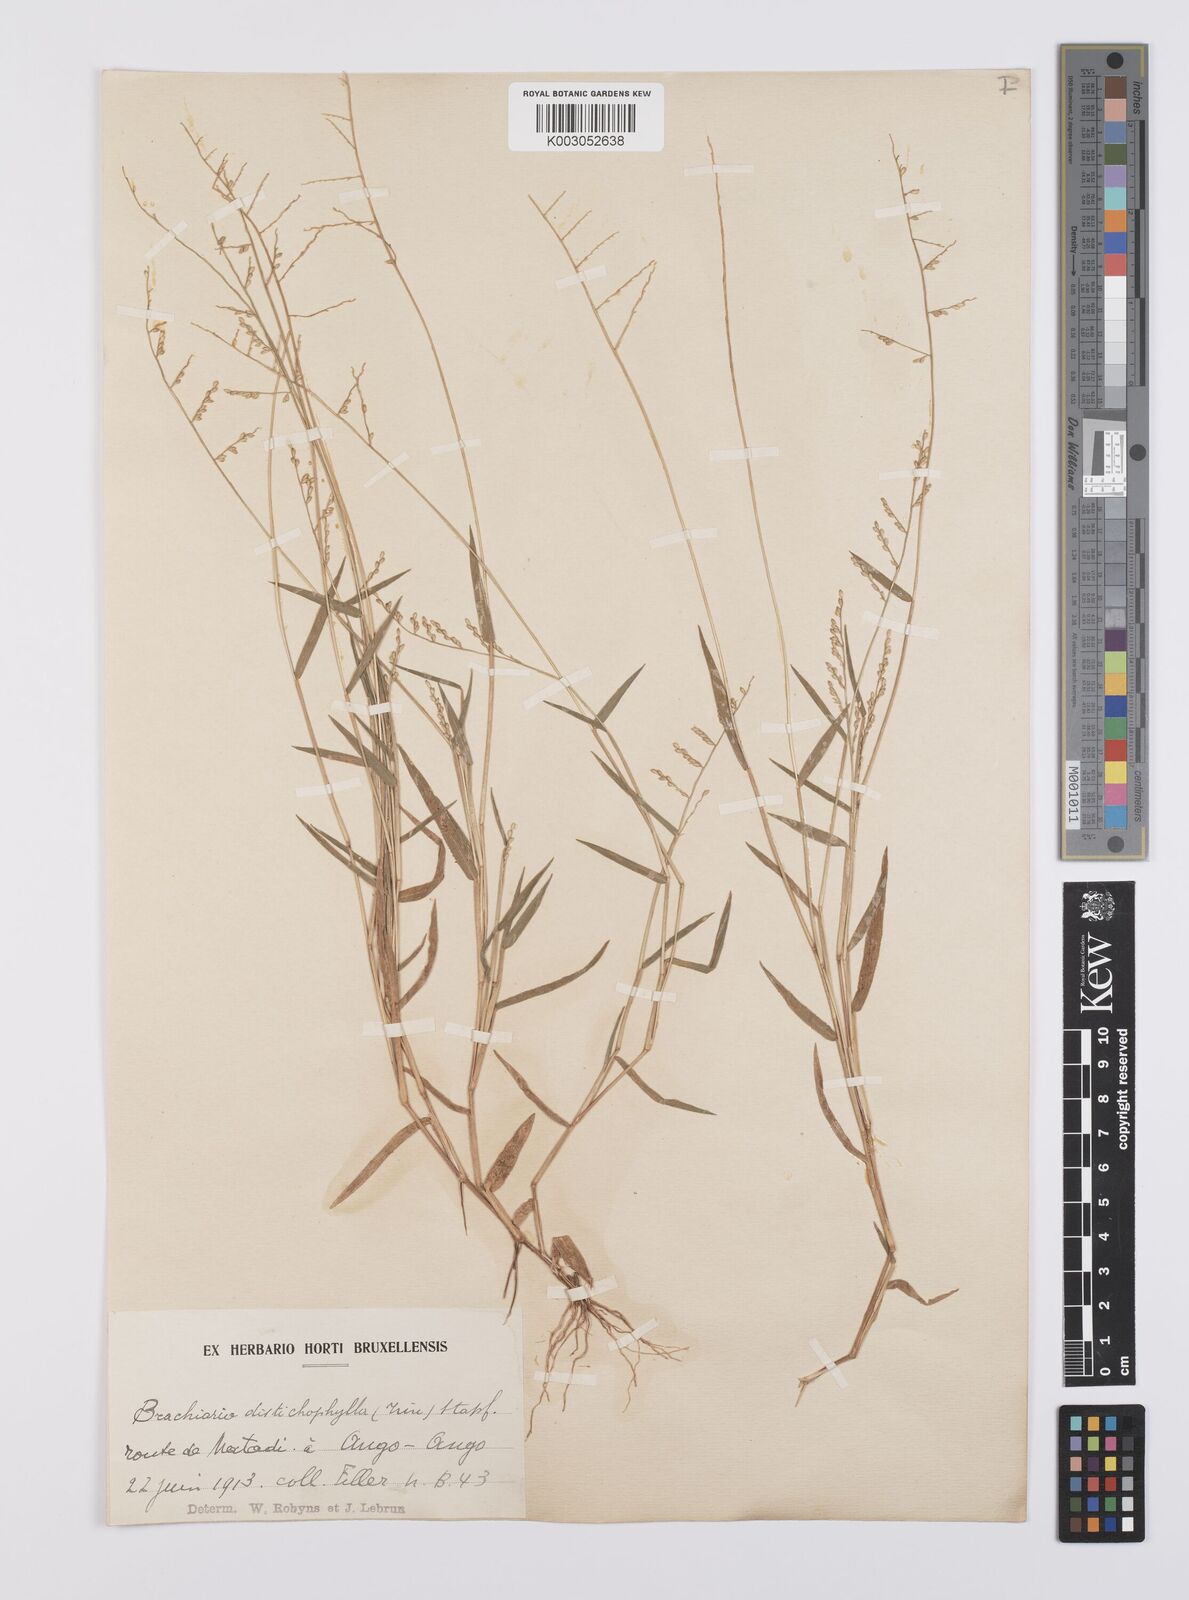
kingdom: Plantae
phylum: Tracheophyta
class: Liliopsida
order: Poales
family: Poaceae
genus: Urochloa
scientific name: Urochloa villosa
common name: Hairy signalgrass
